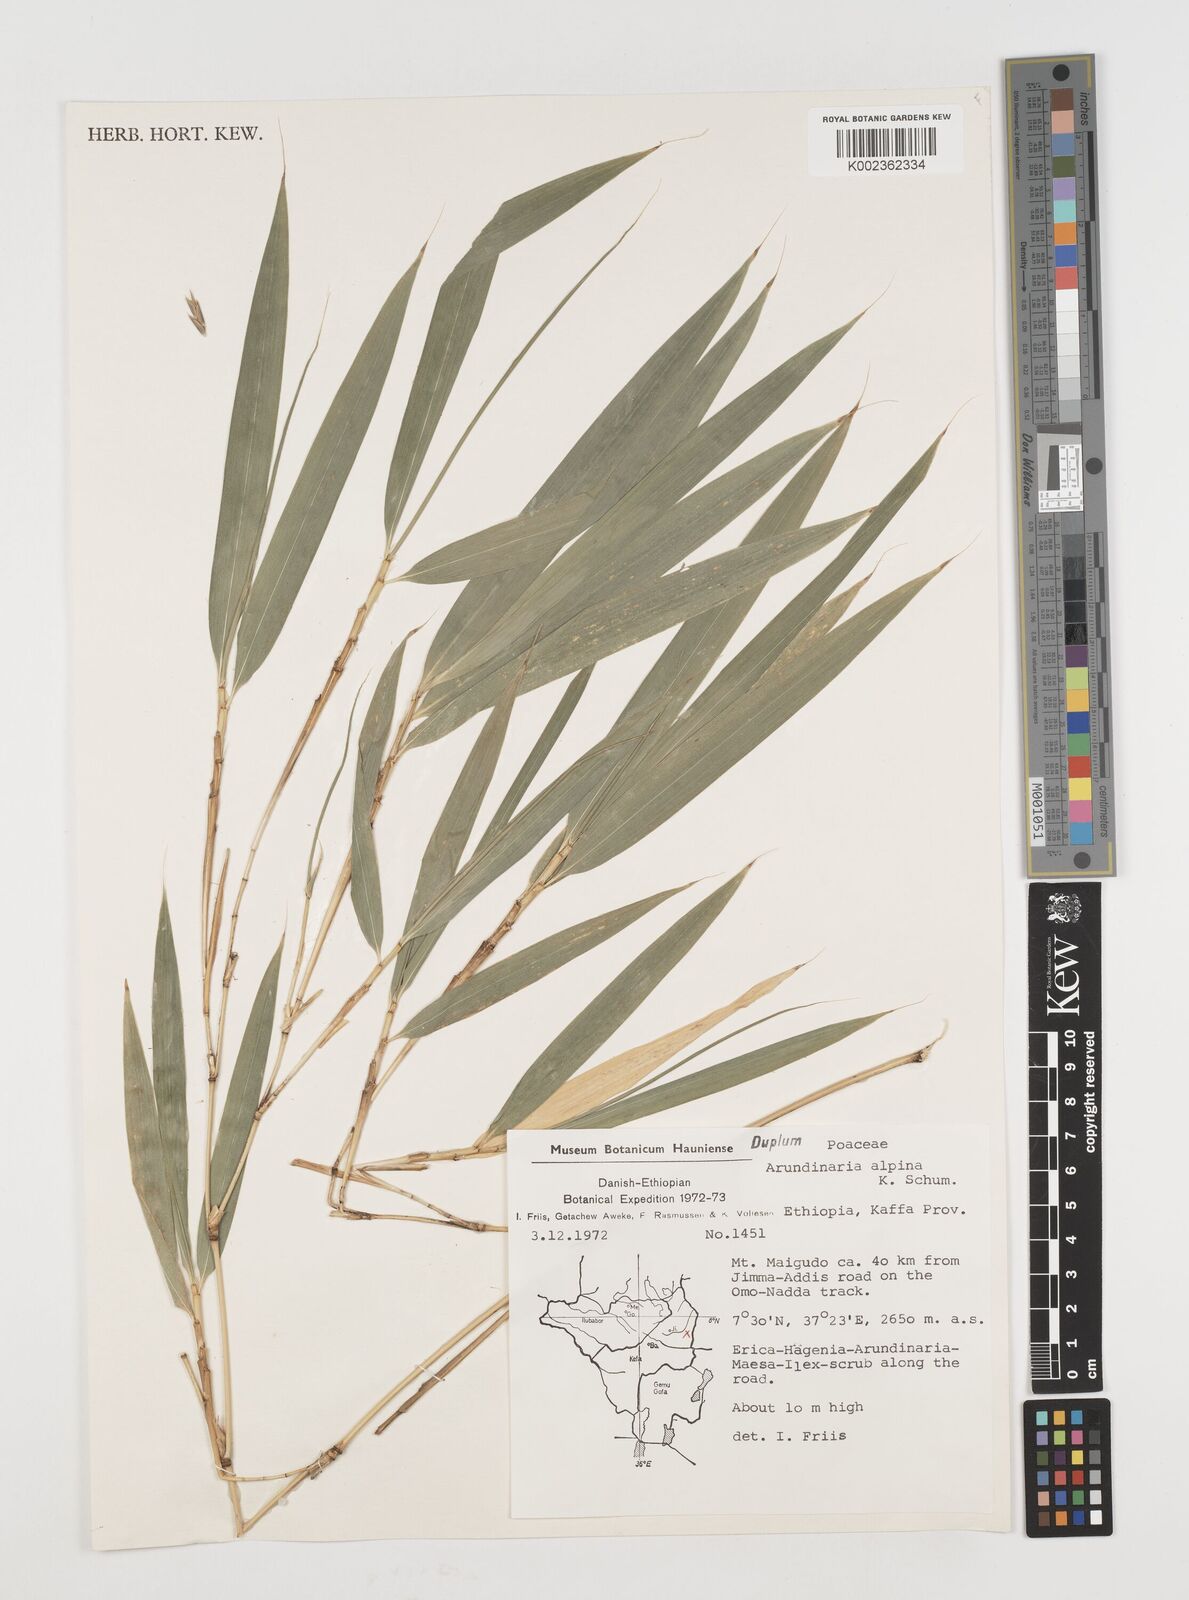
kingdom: Plantae
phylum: Tracheophyta
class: Liliopsida
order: Poales
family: Poaceae
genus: Oldeania
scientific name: Oldeania alpina
